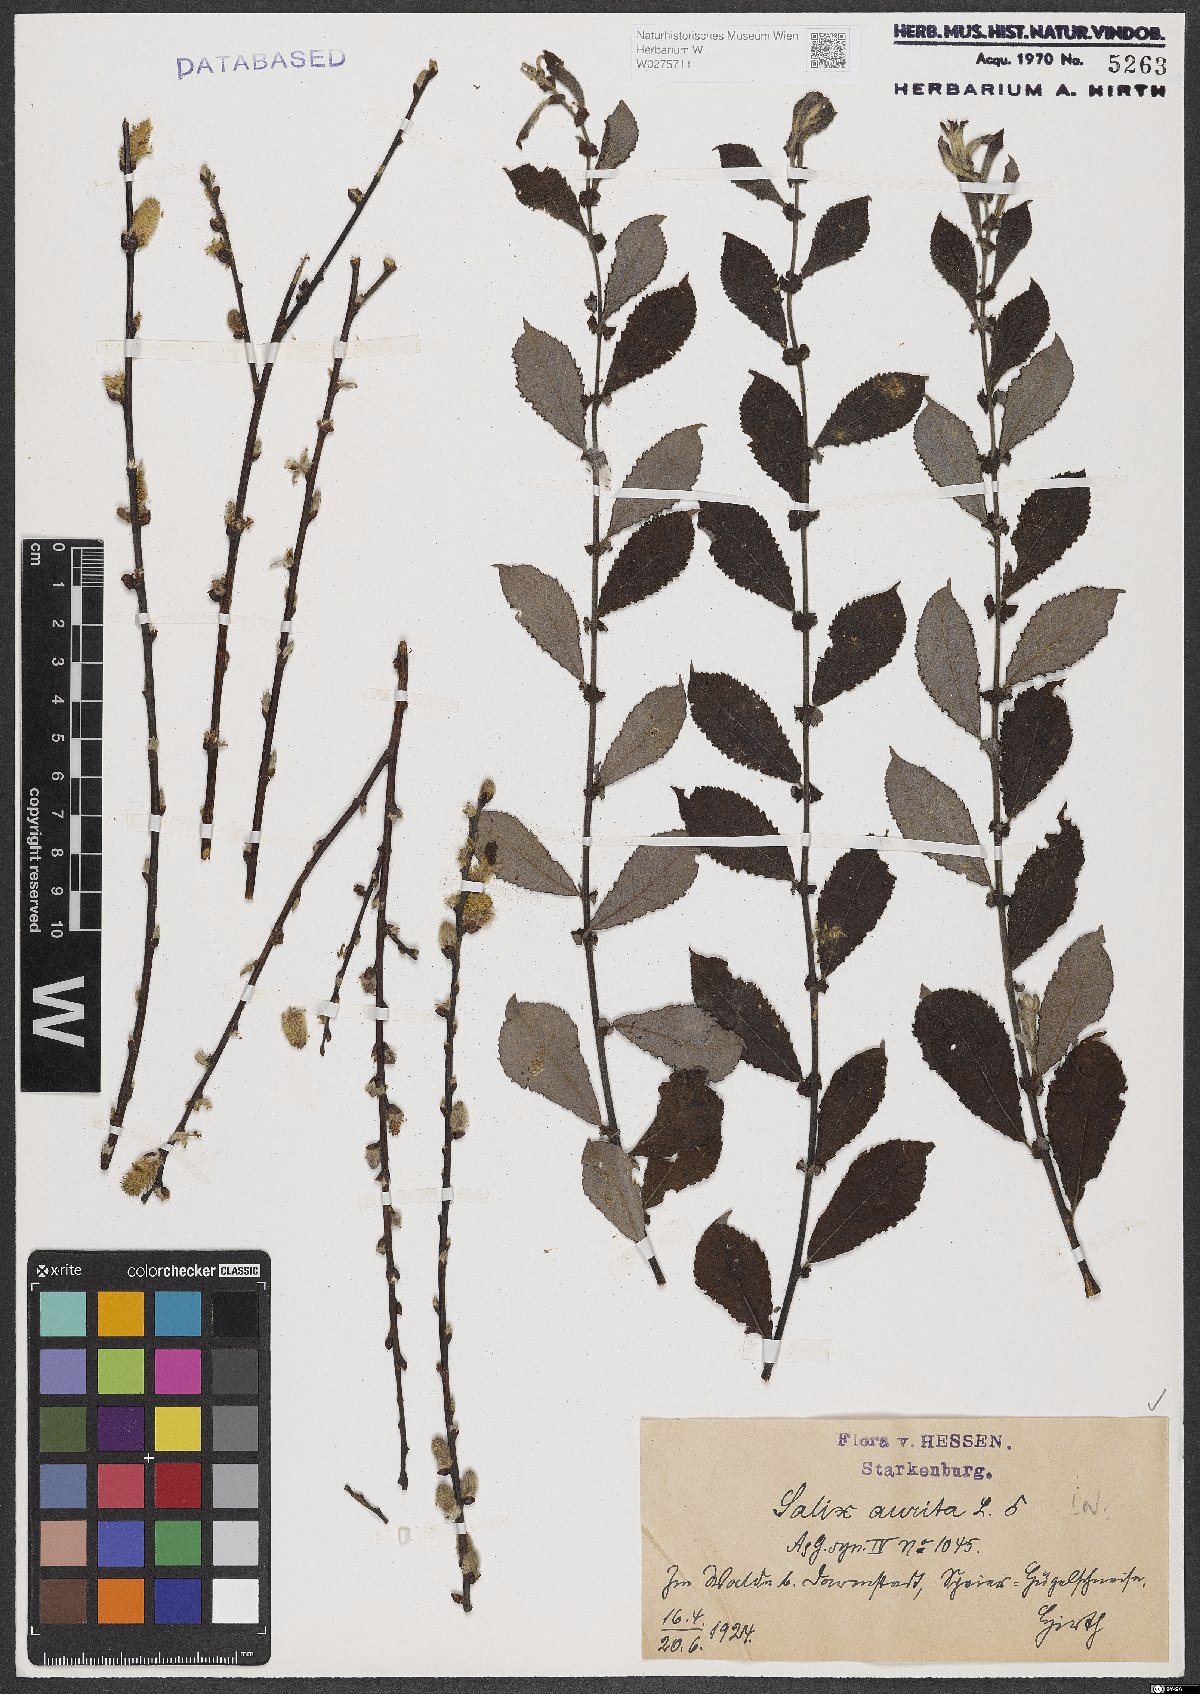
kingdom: Plantae
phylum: Tracheophyta
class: Magnoliopsida
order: Malpighiales
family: Salicaceae
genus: Salix
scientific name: Salix aurita
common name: Eared willow
